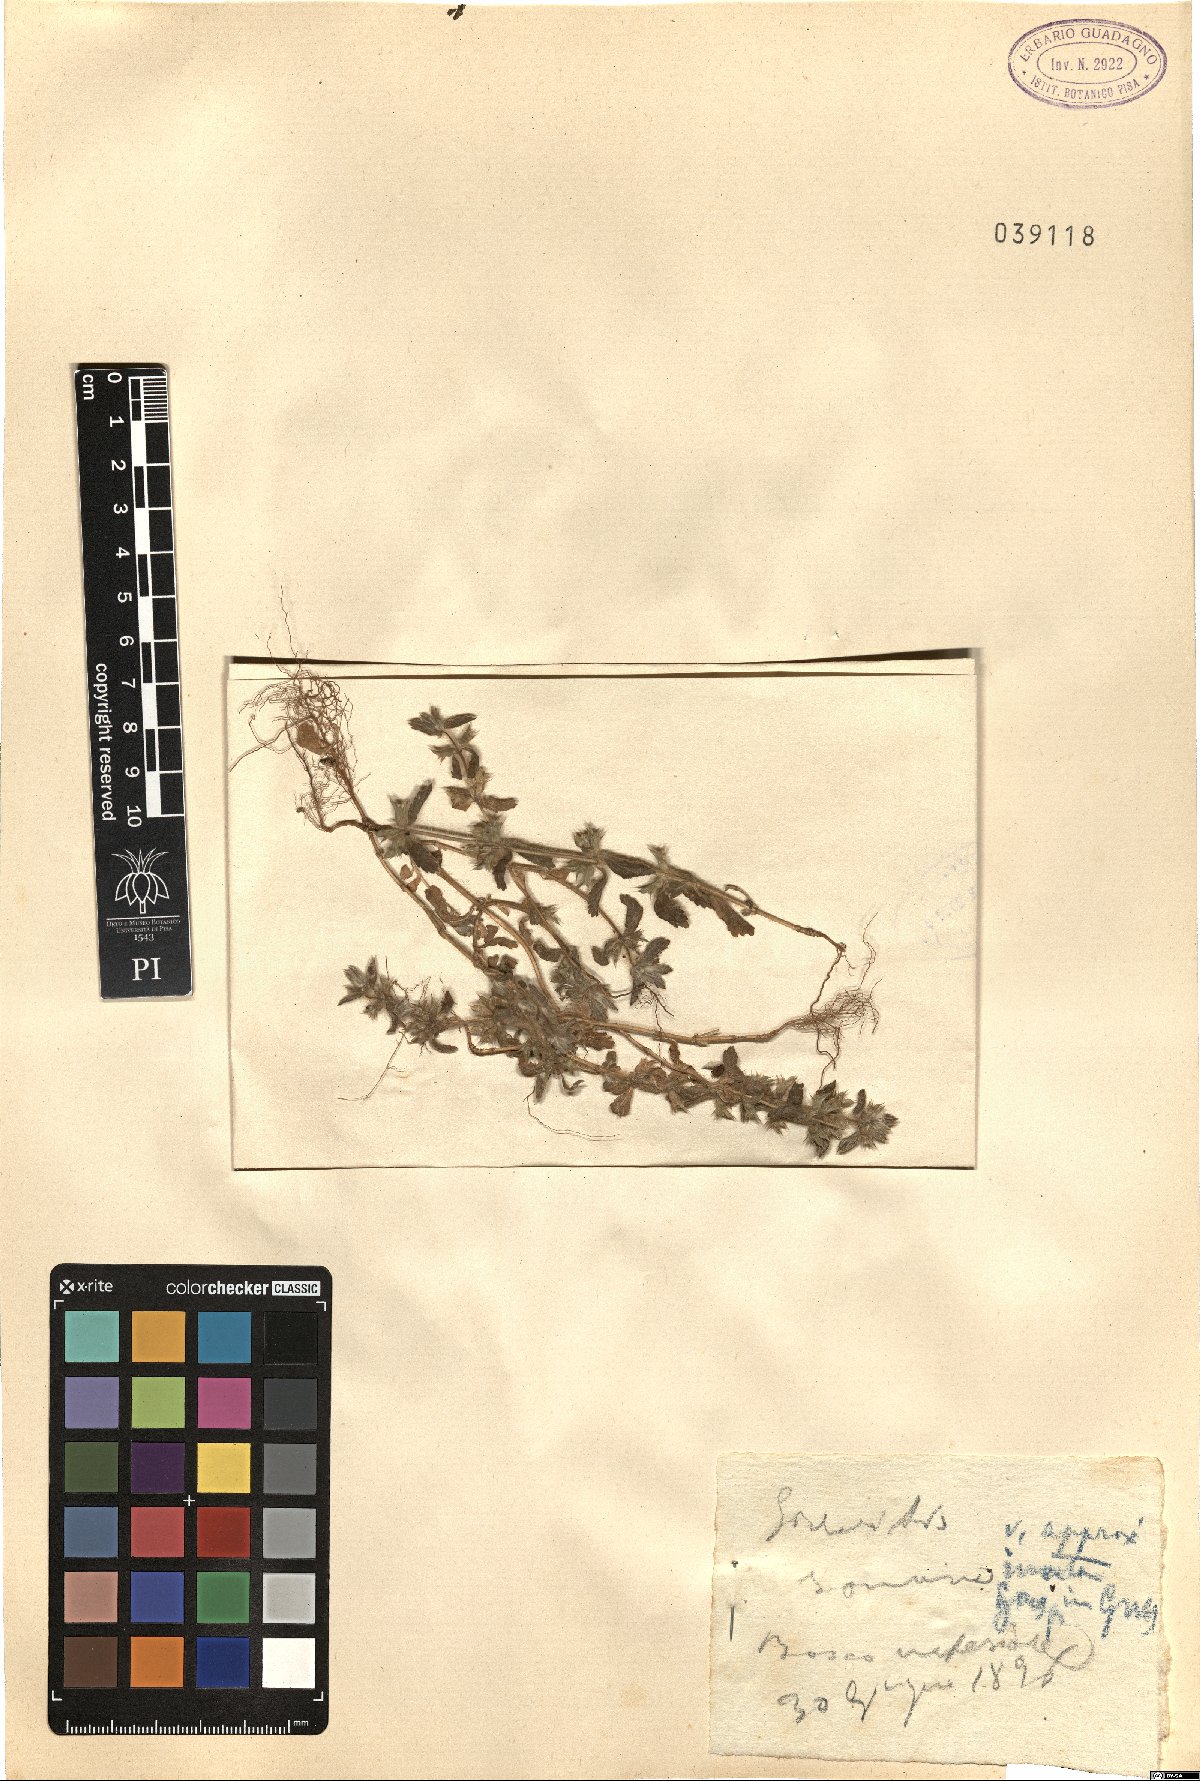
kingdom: Plantae
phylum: Tracheophyta
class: Magnoliopsida
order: Lamiales
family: Lamiaceae
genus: Sideritis
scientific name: Sideritis romana
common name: Simplebeak ironwort
